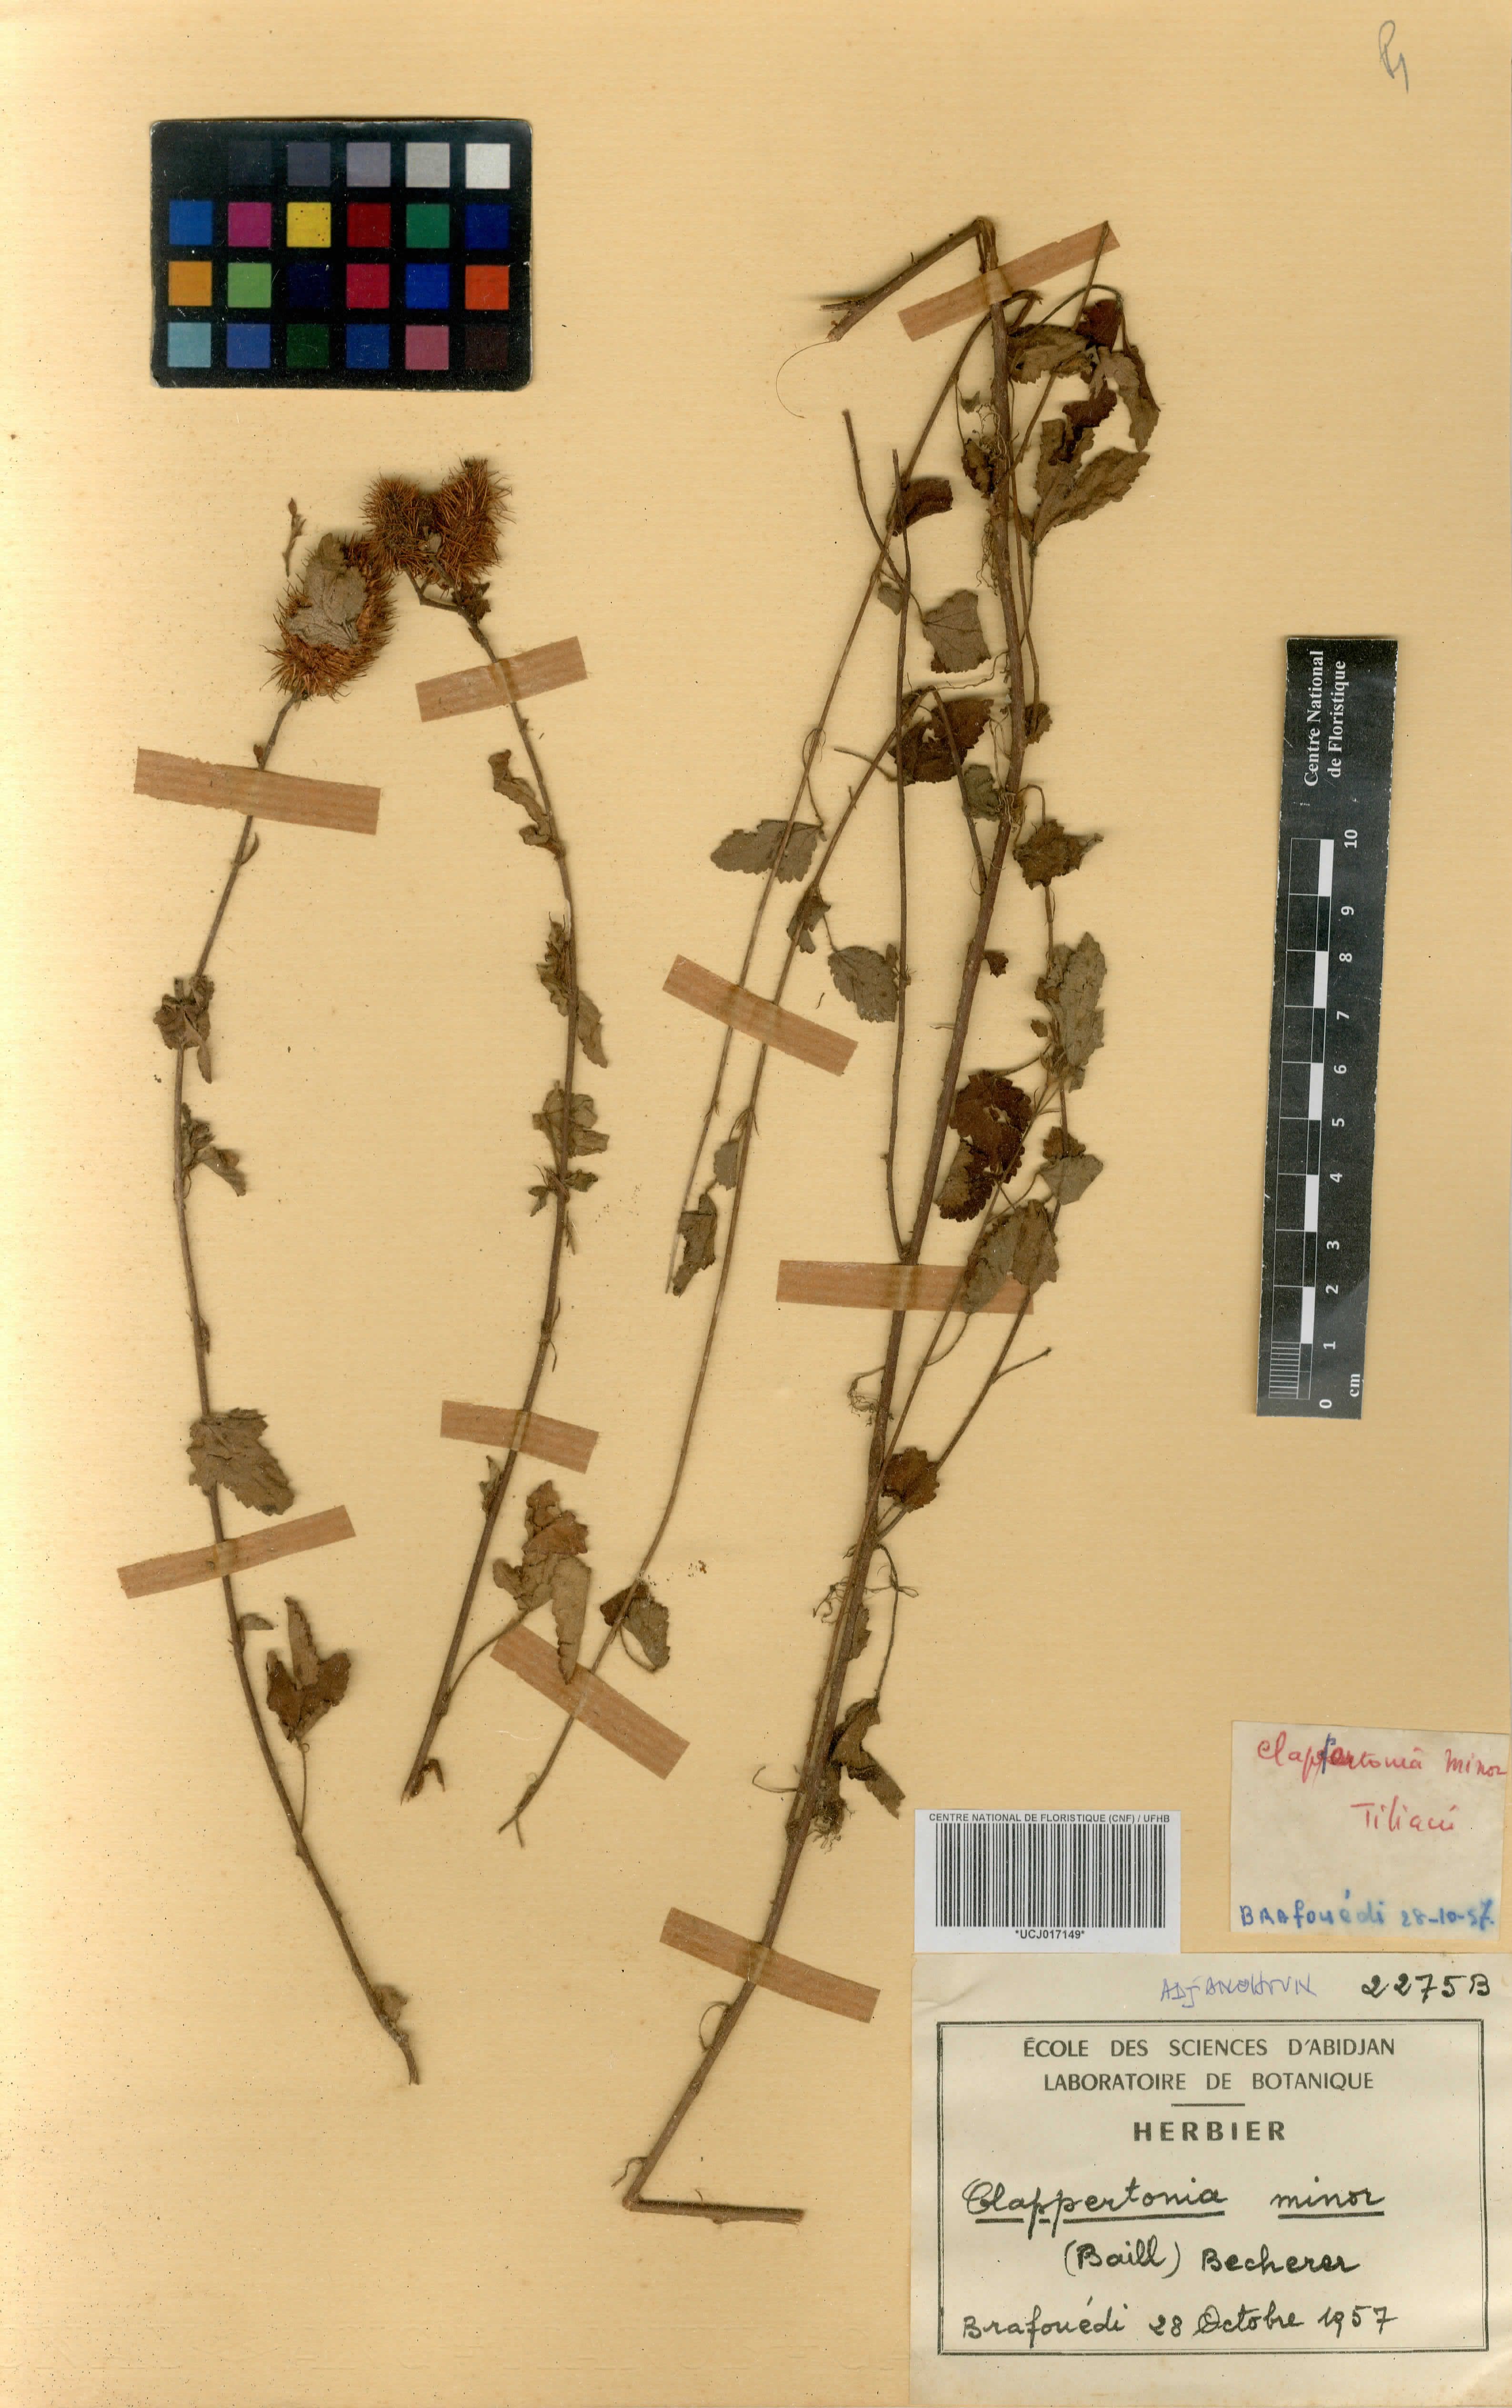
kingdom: Plantae
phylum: Tracheophyta
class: Magnoliopsida
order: Malvales
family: Malvaceae
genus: Clappertonia
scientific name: Clappertonia minor
